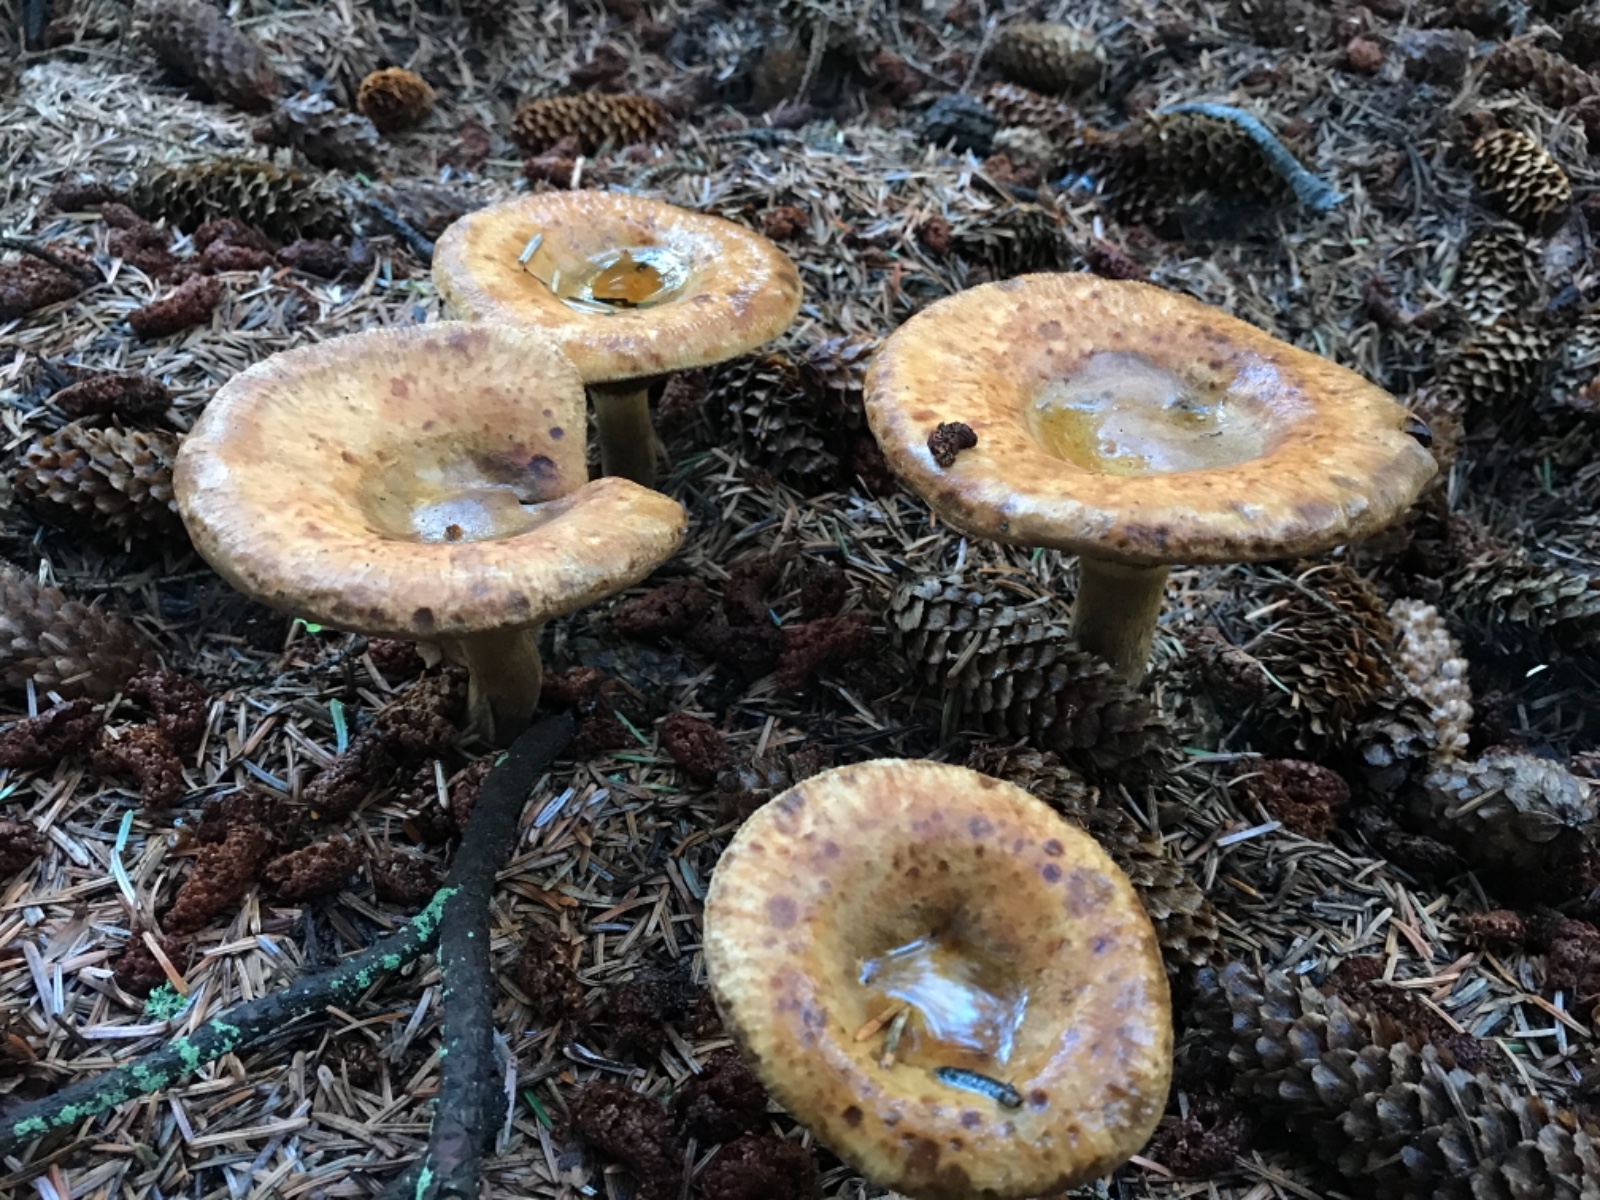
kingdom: Fungi
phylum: Basidiomycota
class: Agaricomycetes
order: Boletales
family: Paxillaceae
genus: Paxillus
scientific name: Paxillus involutus
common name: almindelig netbladhat
